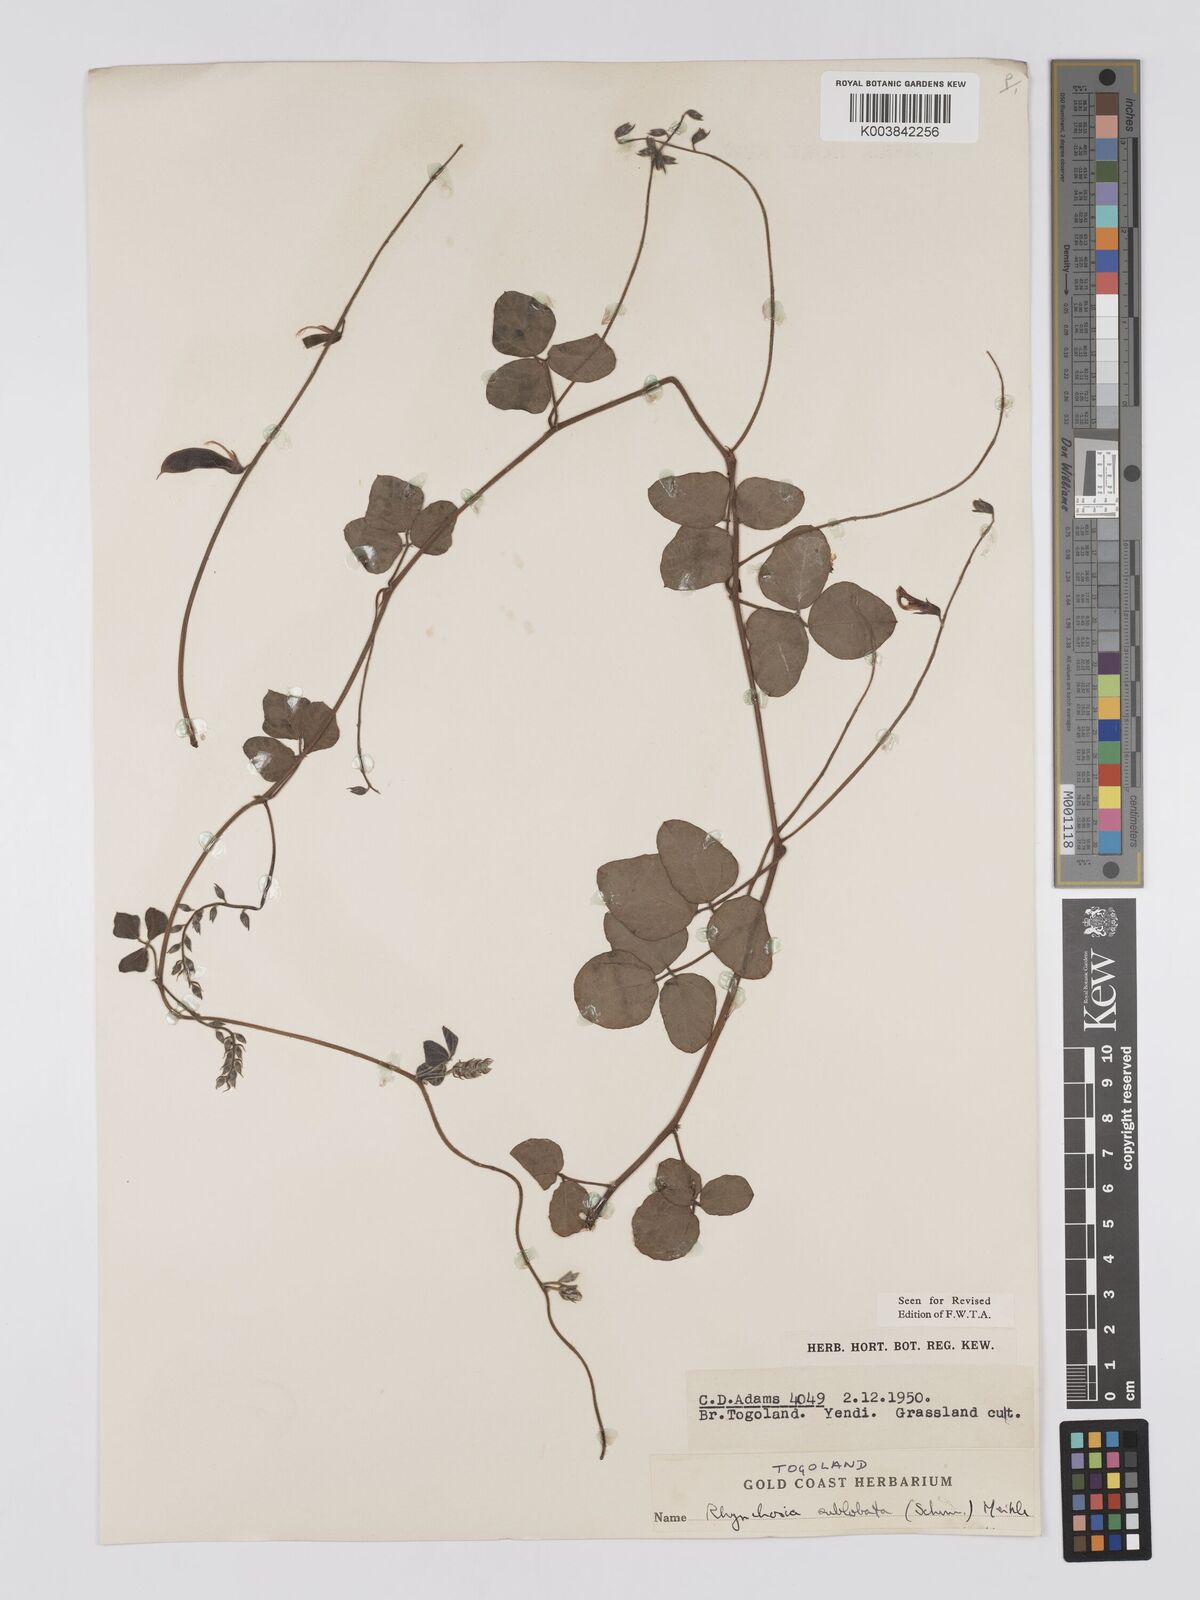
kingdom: Plantae
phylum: Tracheophyta
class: Magnoliopsida
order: Fabales
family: Fabaceae
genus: Rhynchosia
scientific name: Rhynchosia sublobata
